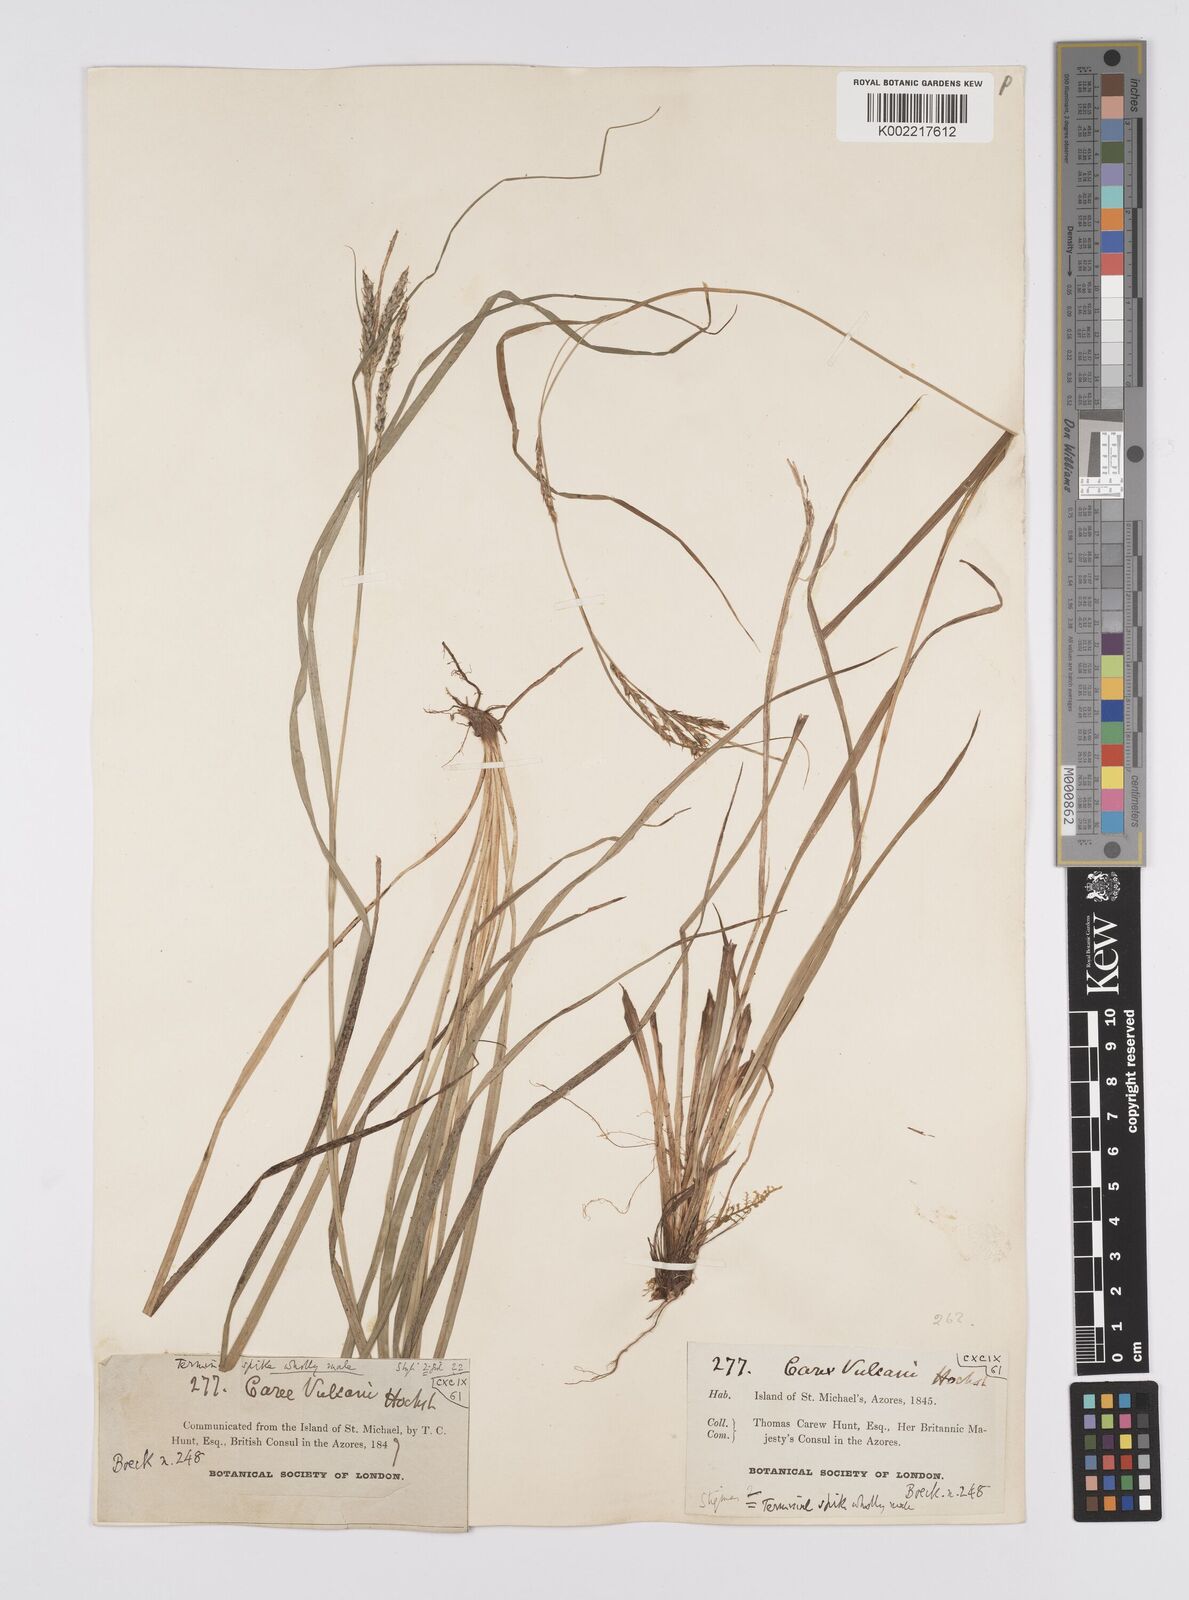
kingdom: Plantae
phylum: Tracheophyta
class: Liliopsida
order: Poales
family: Cyperaceae
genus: Carex
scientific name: Carex vulcani
